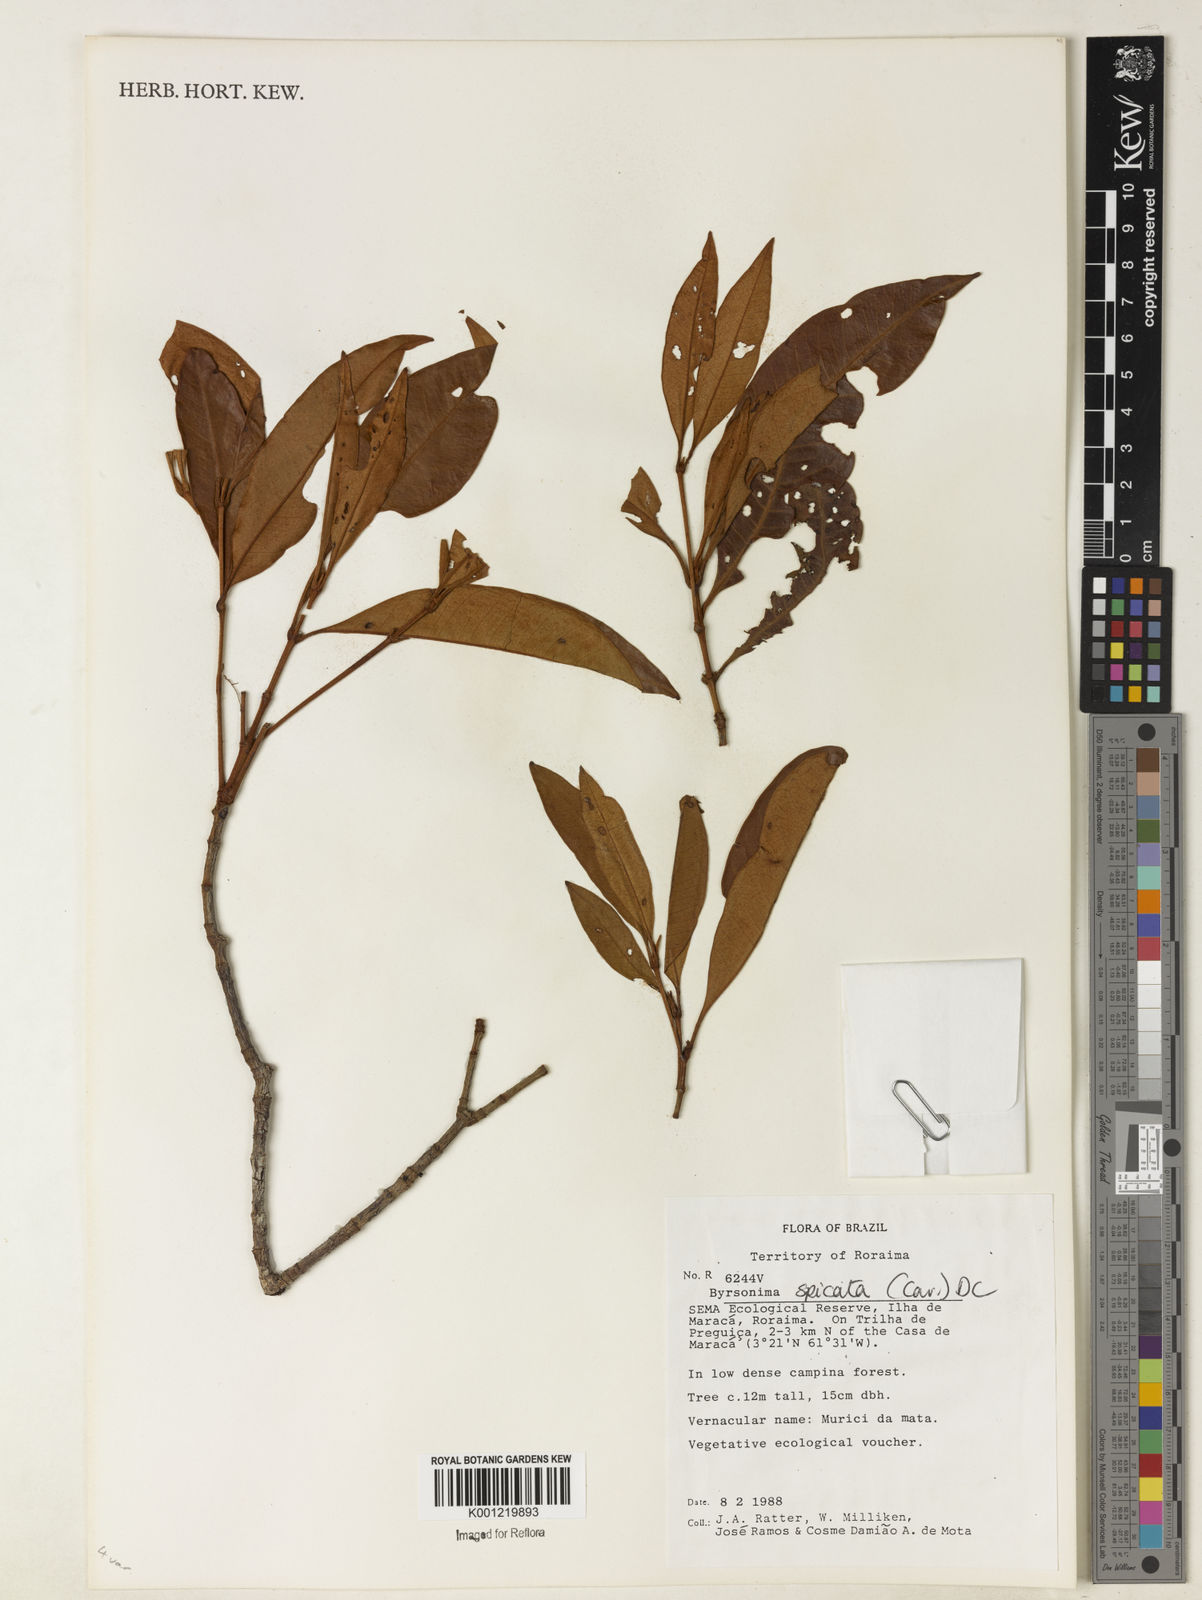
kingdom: Plantae
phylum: Tracheophyta
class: Magnoliopsida
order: Malpighiales
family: Malpighiaceae
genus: Byrsonima
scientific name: Byrsonima
